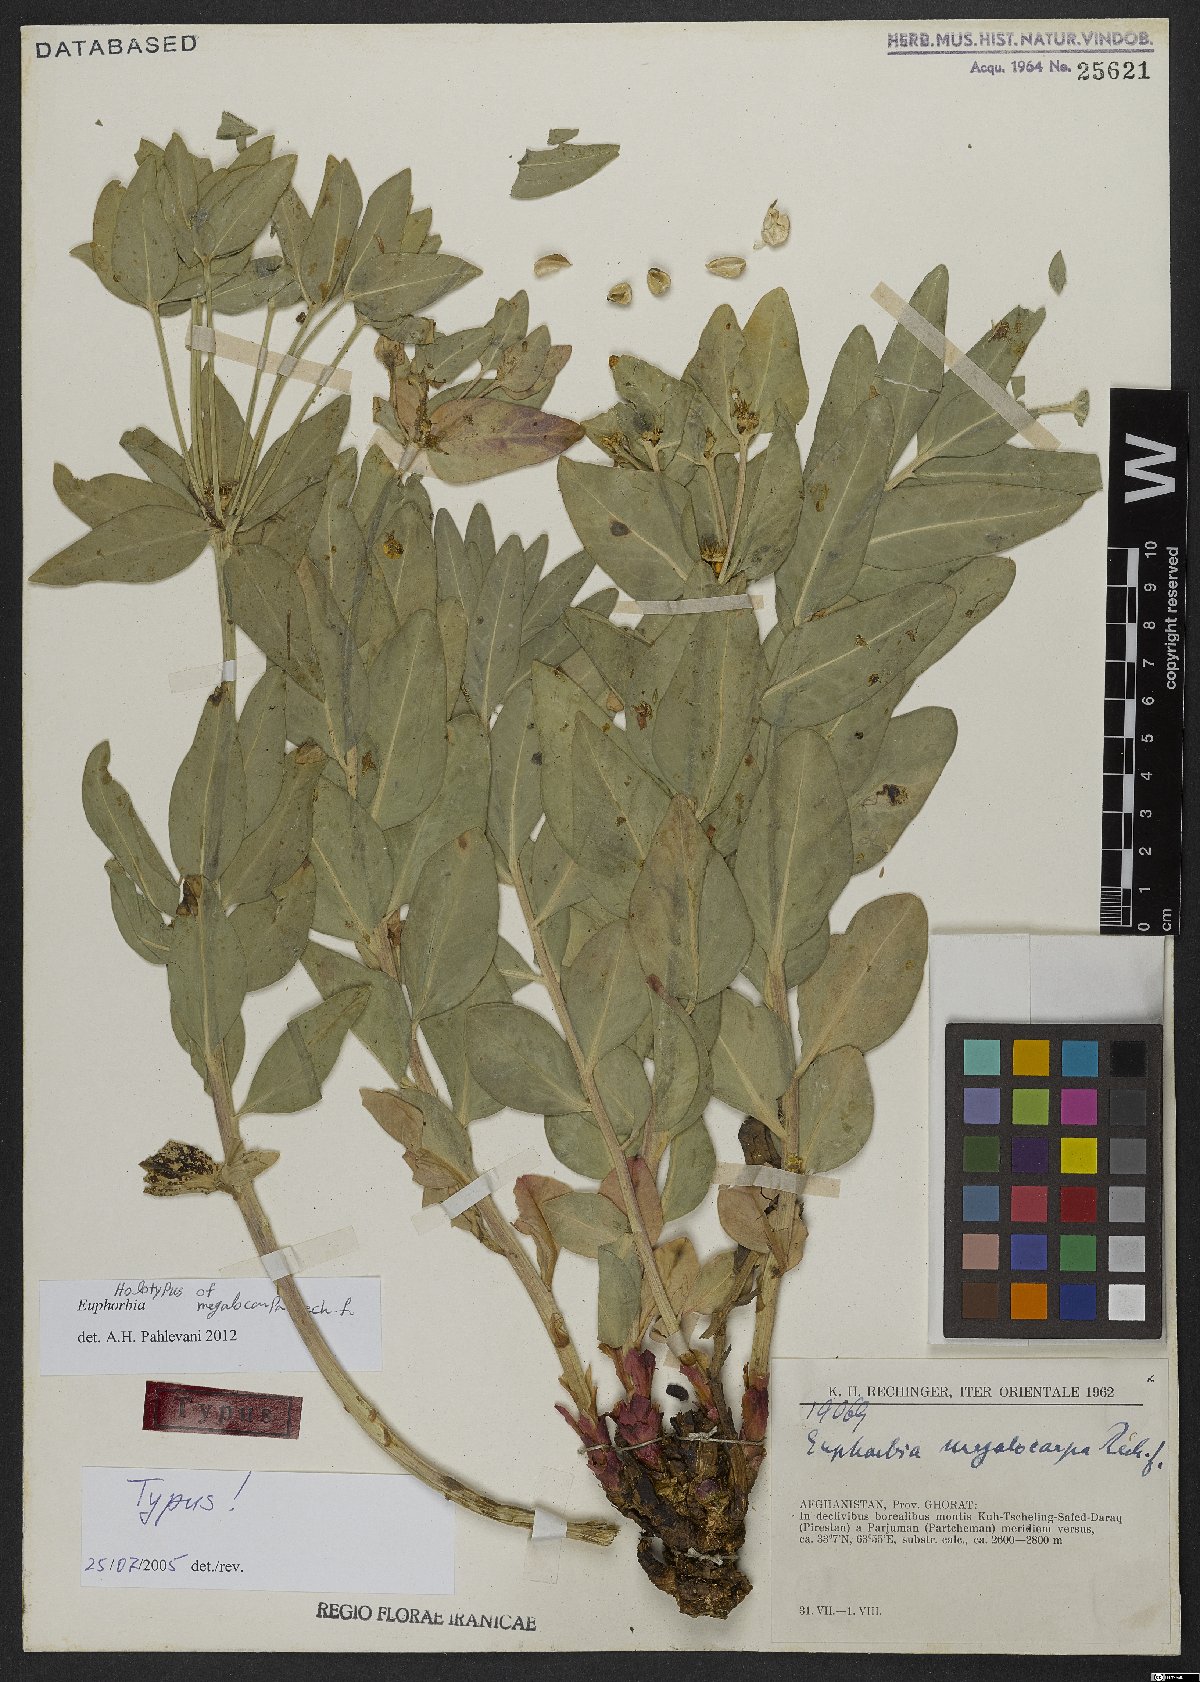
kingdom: Plantae
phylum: Tracheophyta
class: Magnoliopsida
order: Malpighiales
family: Euphorbiaceae
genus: Euphorbia
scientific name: Euphorbia megalocarpa
